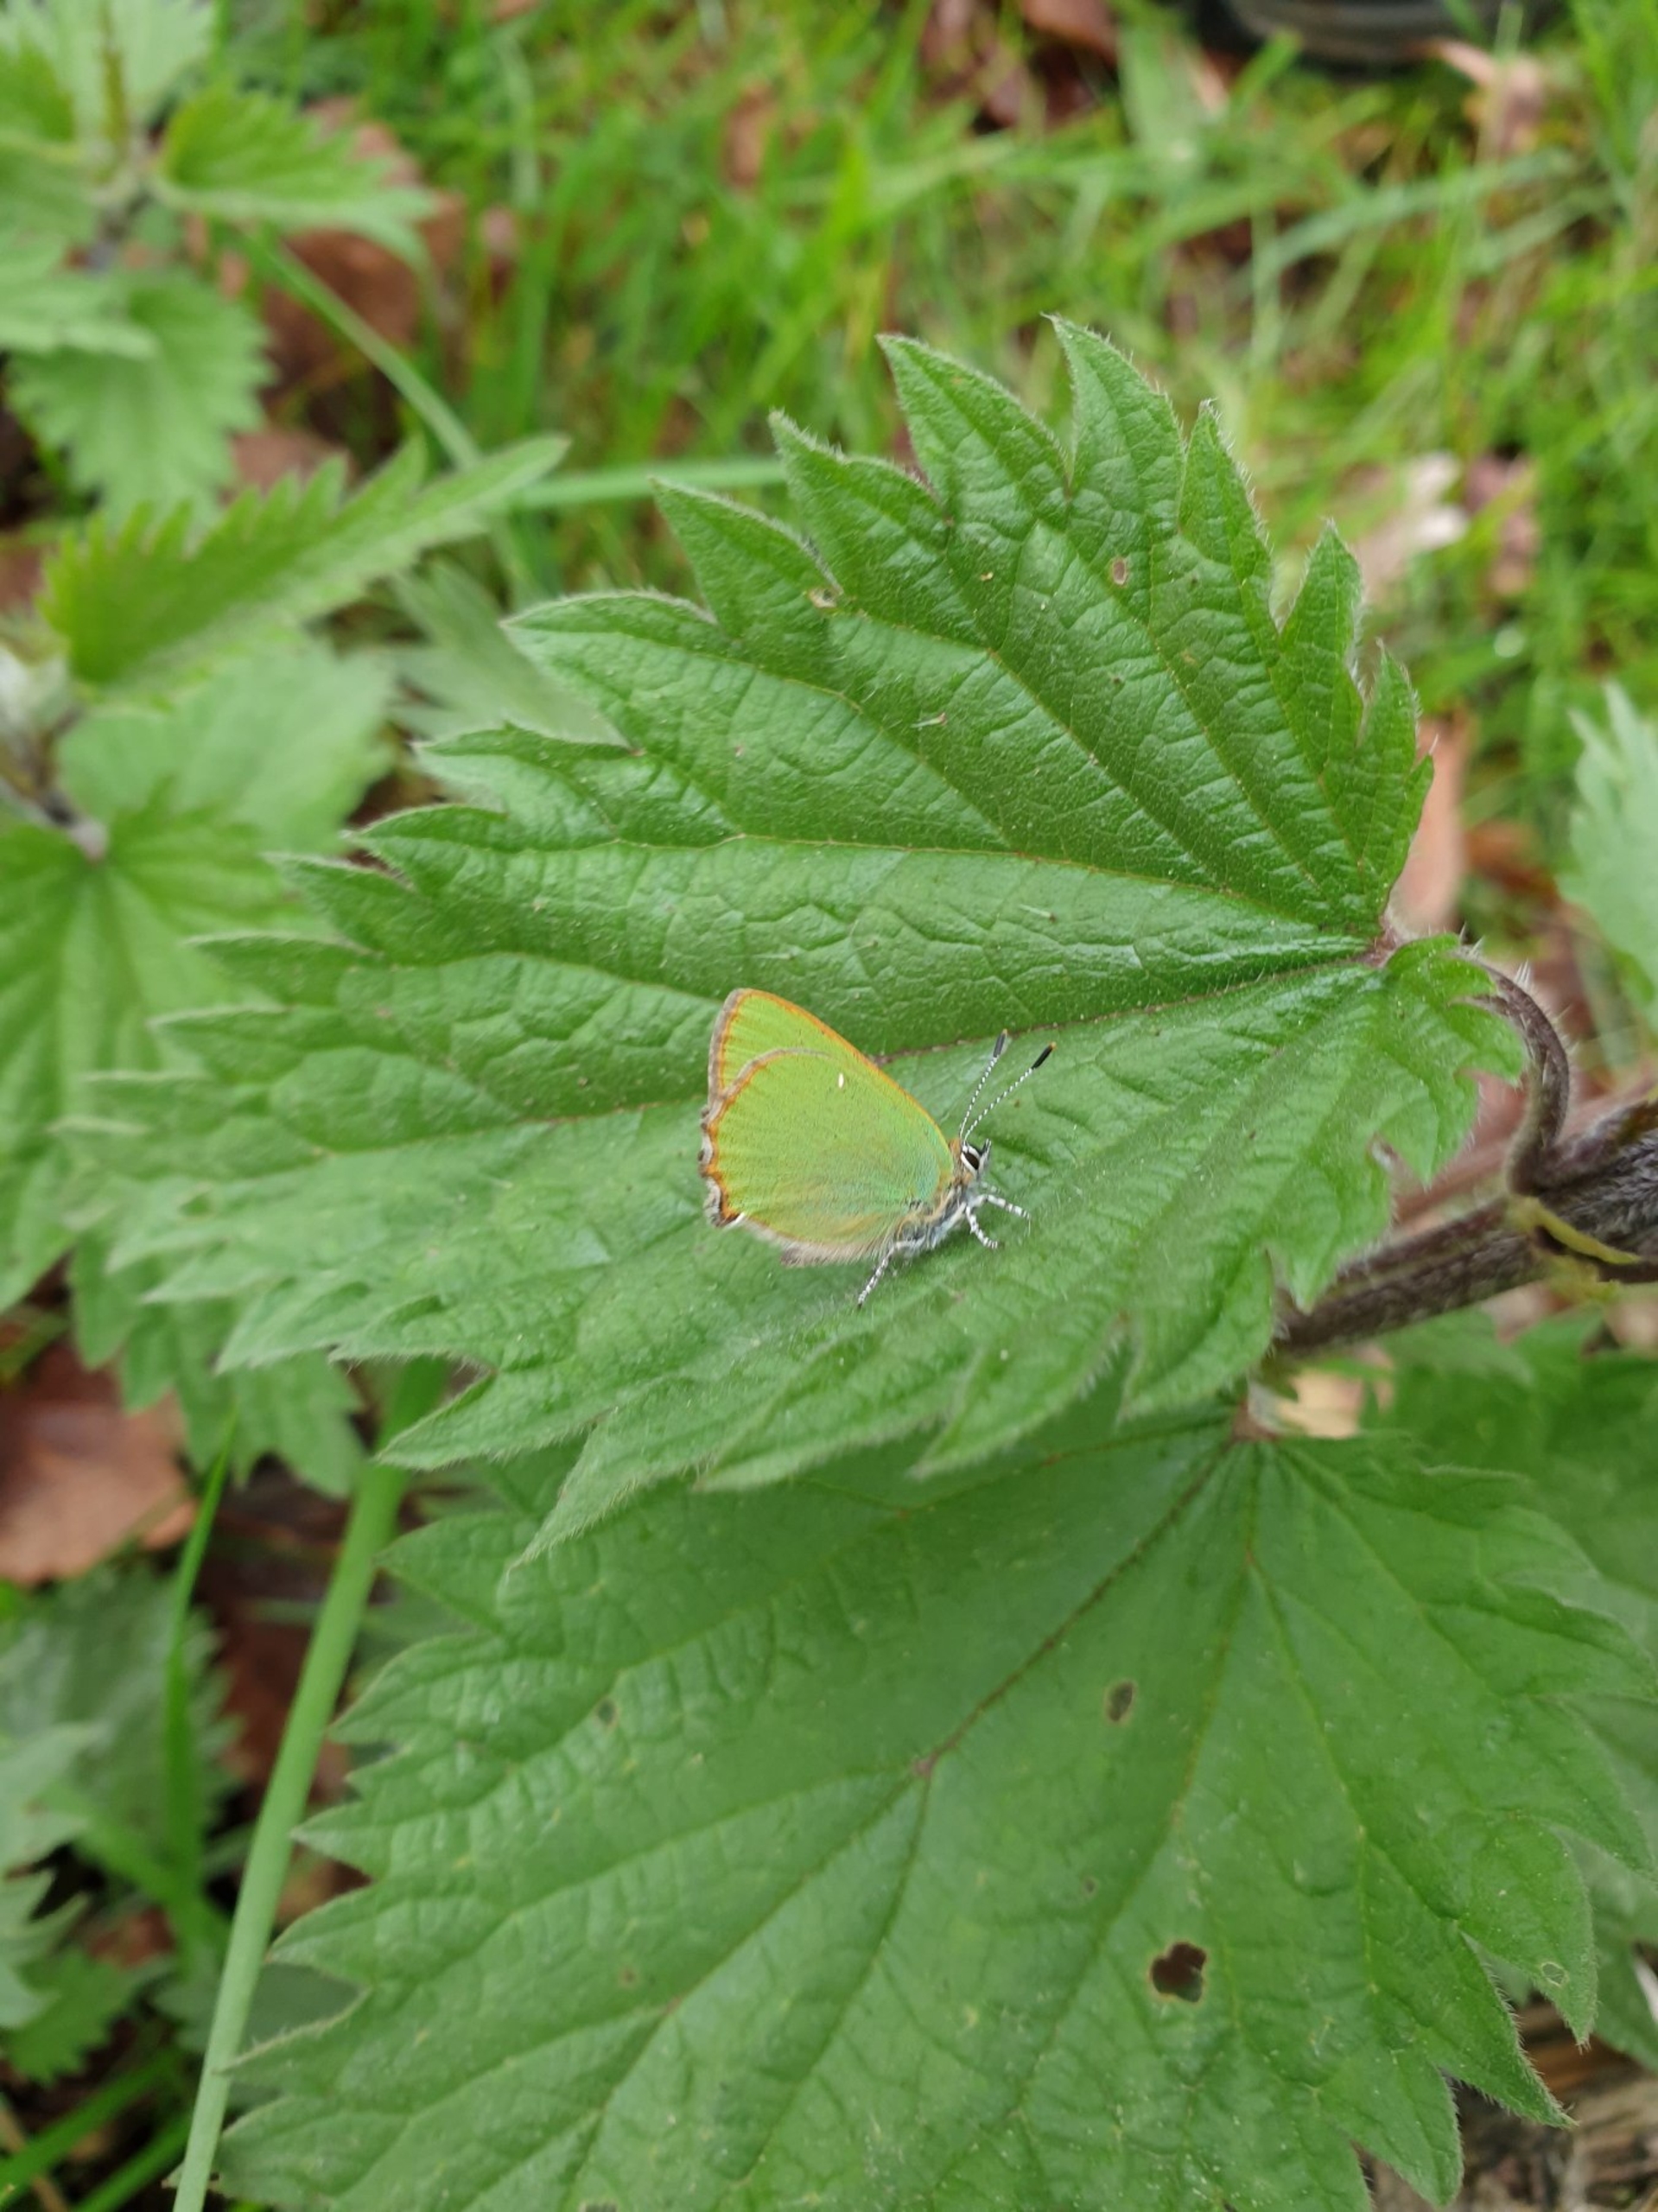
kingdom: Animalia
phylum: Arthropoda
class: Insecta
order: Lepidoptera
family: Lycaenidae
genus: Callophrys
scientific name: Callophrys rubi
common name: Grøn busksommerfugl
